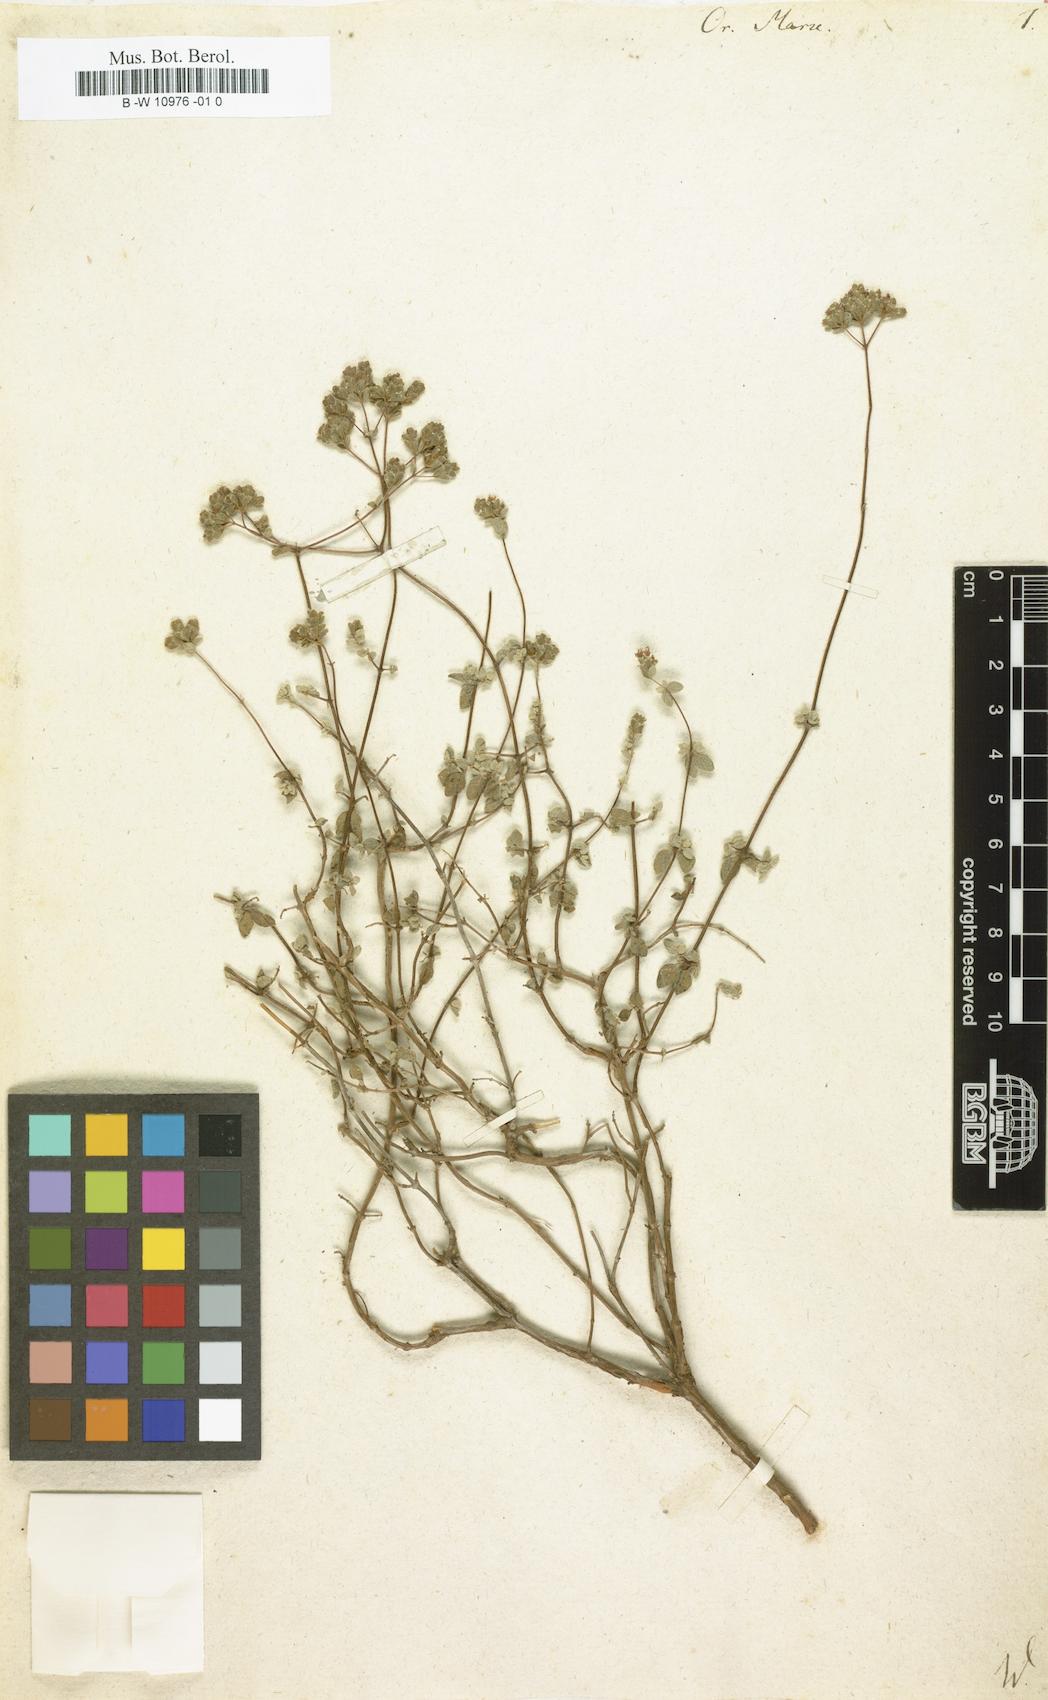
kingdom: Plantae
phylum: Tracheophyta
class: Magnoliopsida
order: Lamiales
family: Lamiaceae
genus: Origanum
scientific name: Origanum
